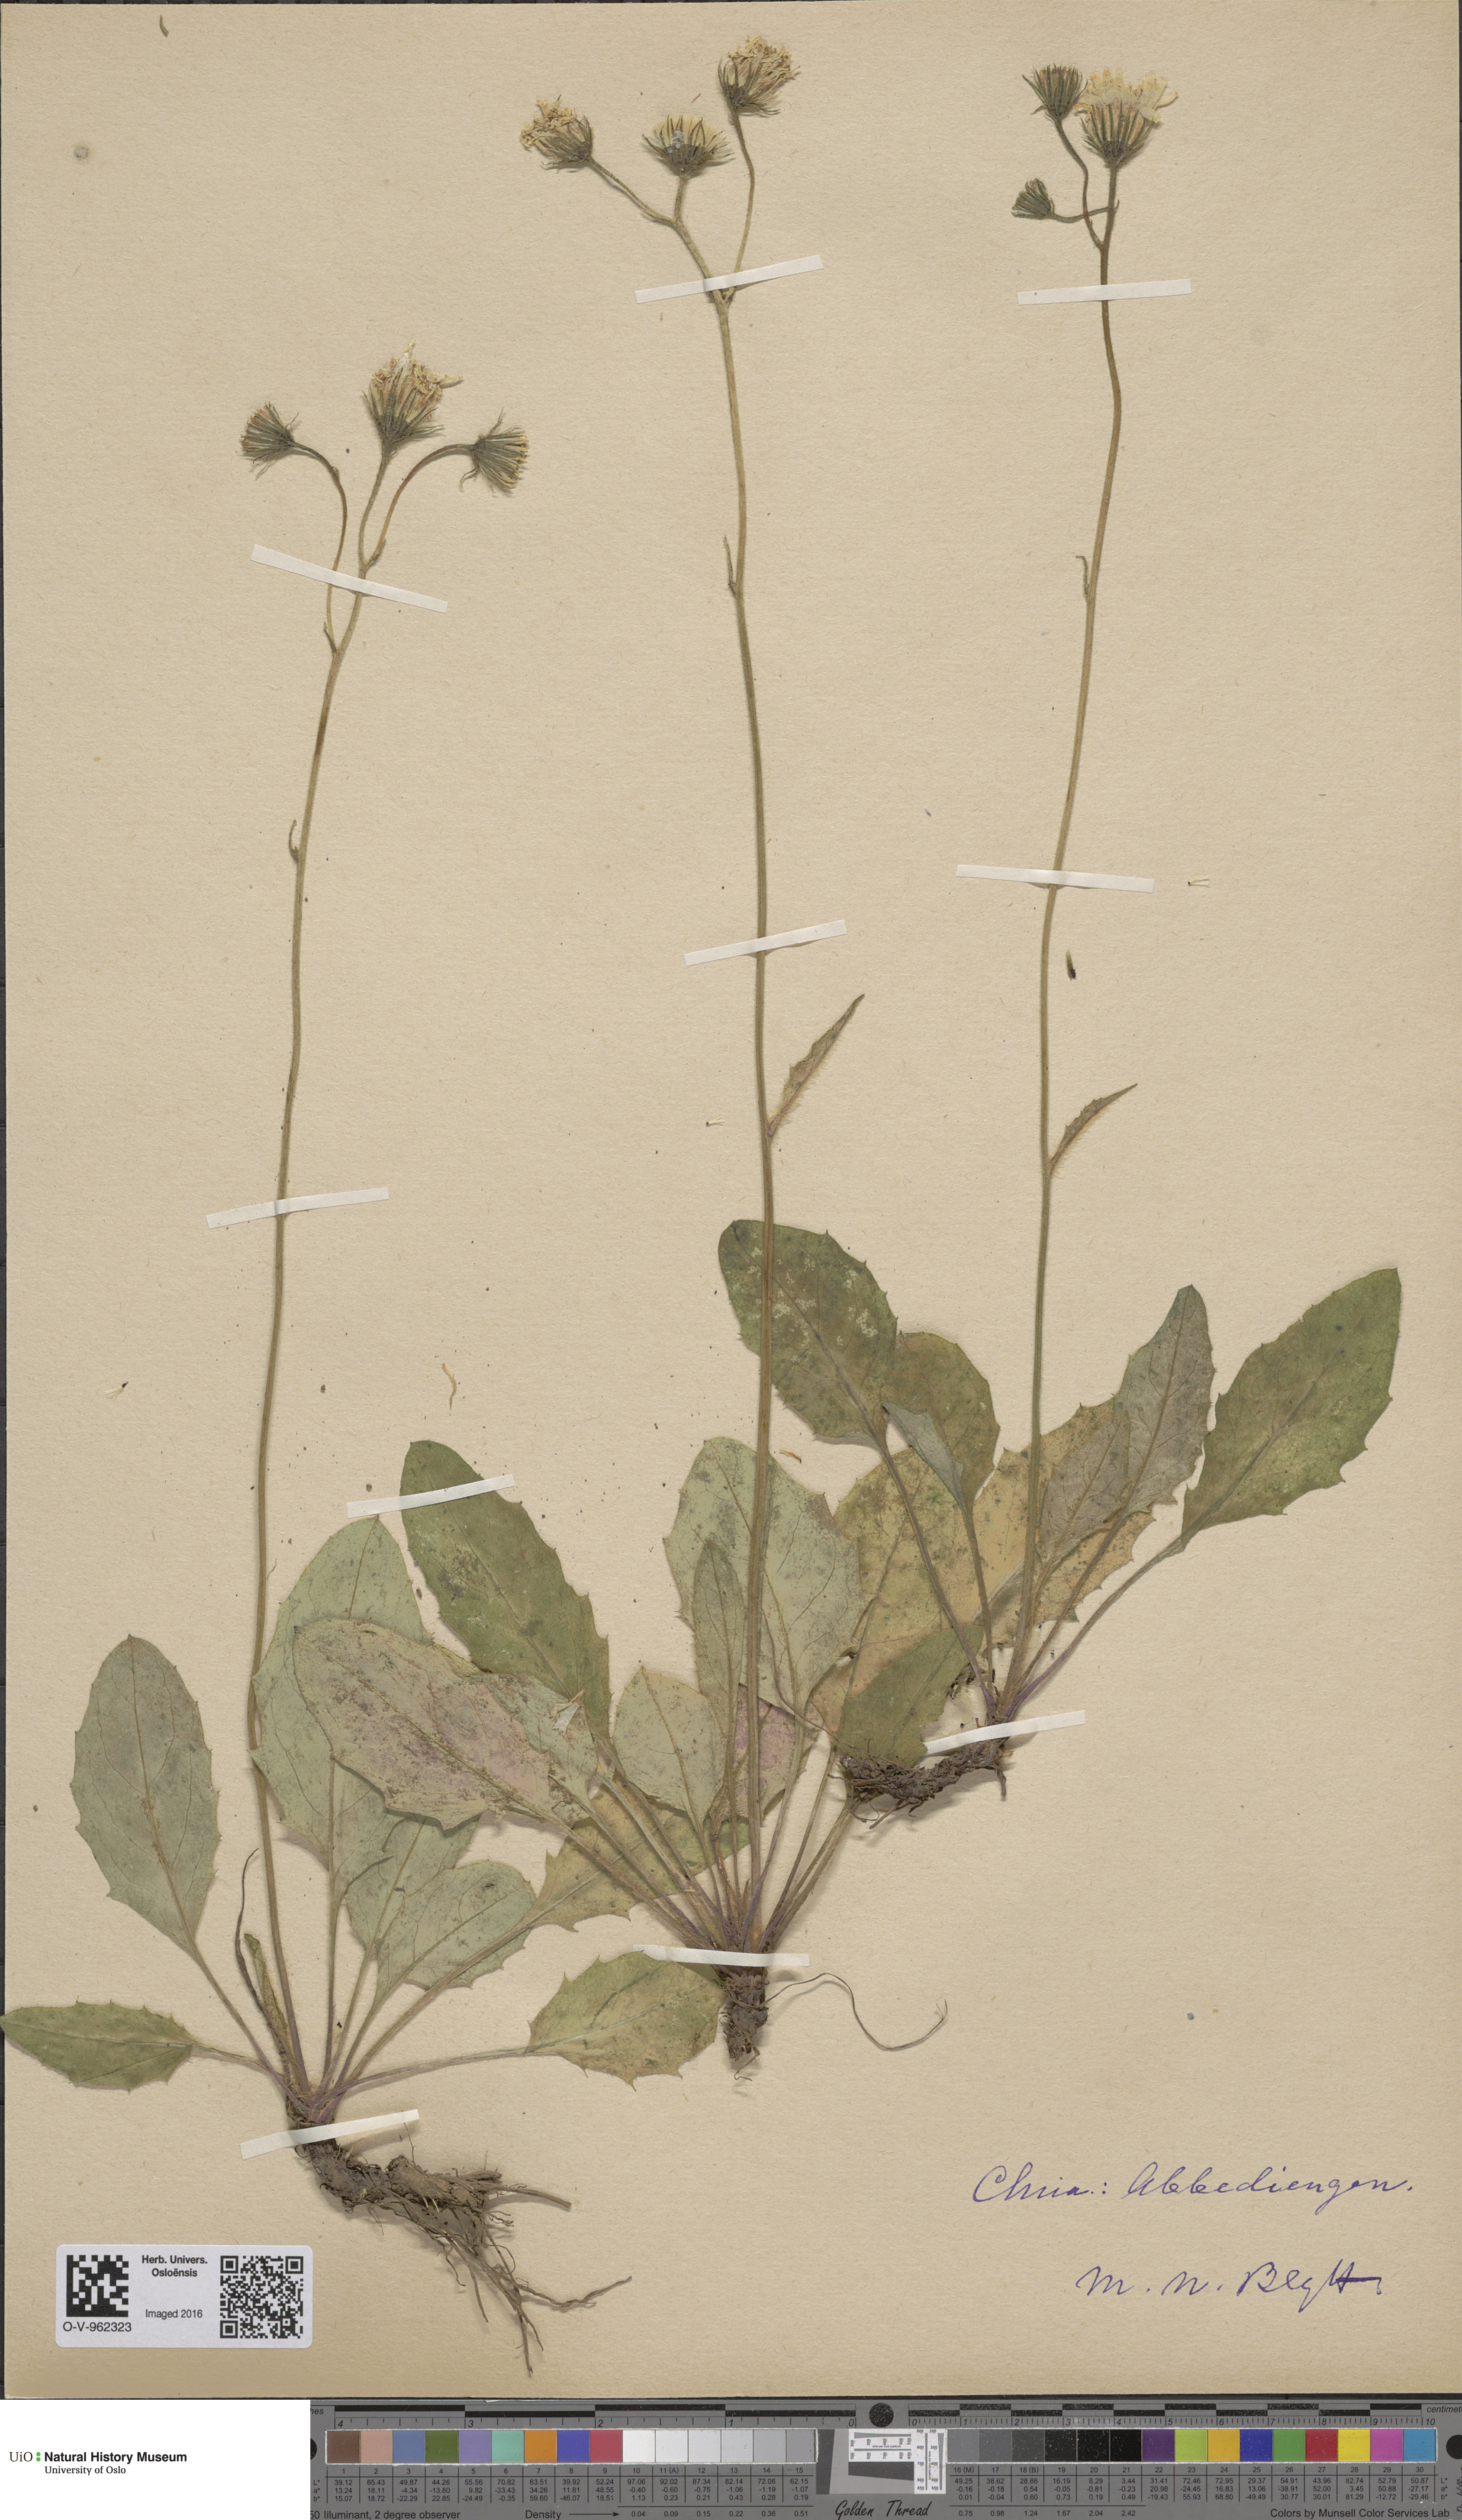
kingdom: Plantae
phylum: Tracheophyta
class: Magnoliopsida
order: Asterales
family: Asteraceae
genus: Hieracium
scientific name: Hieracium
